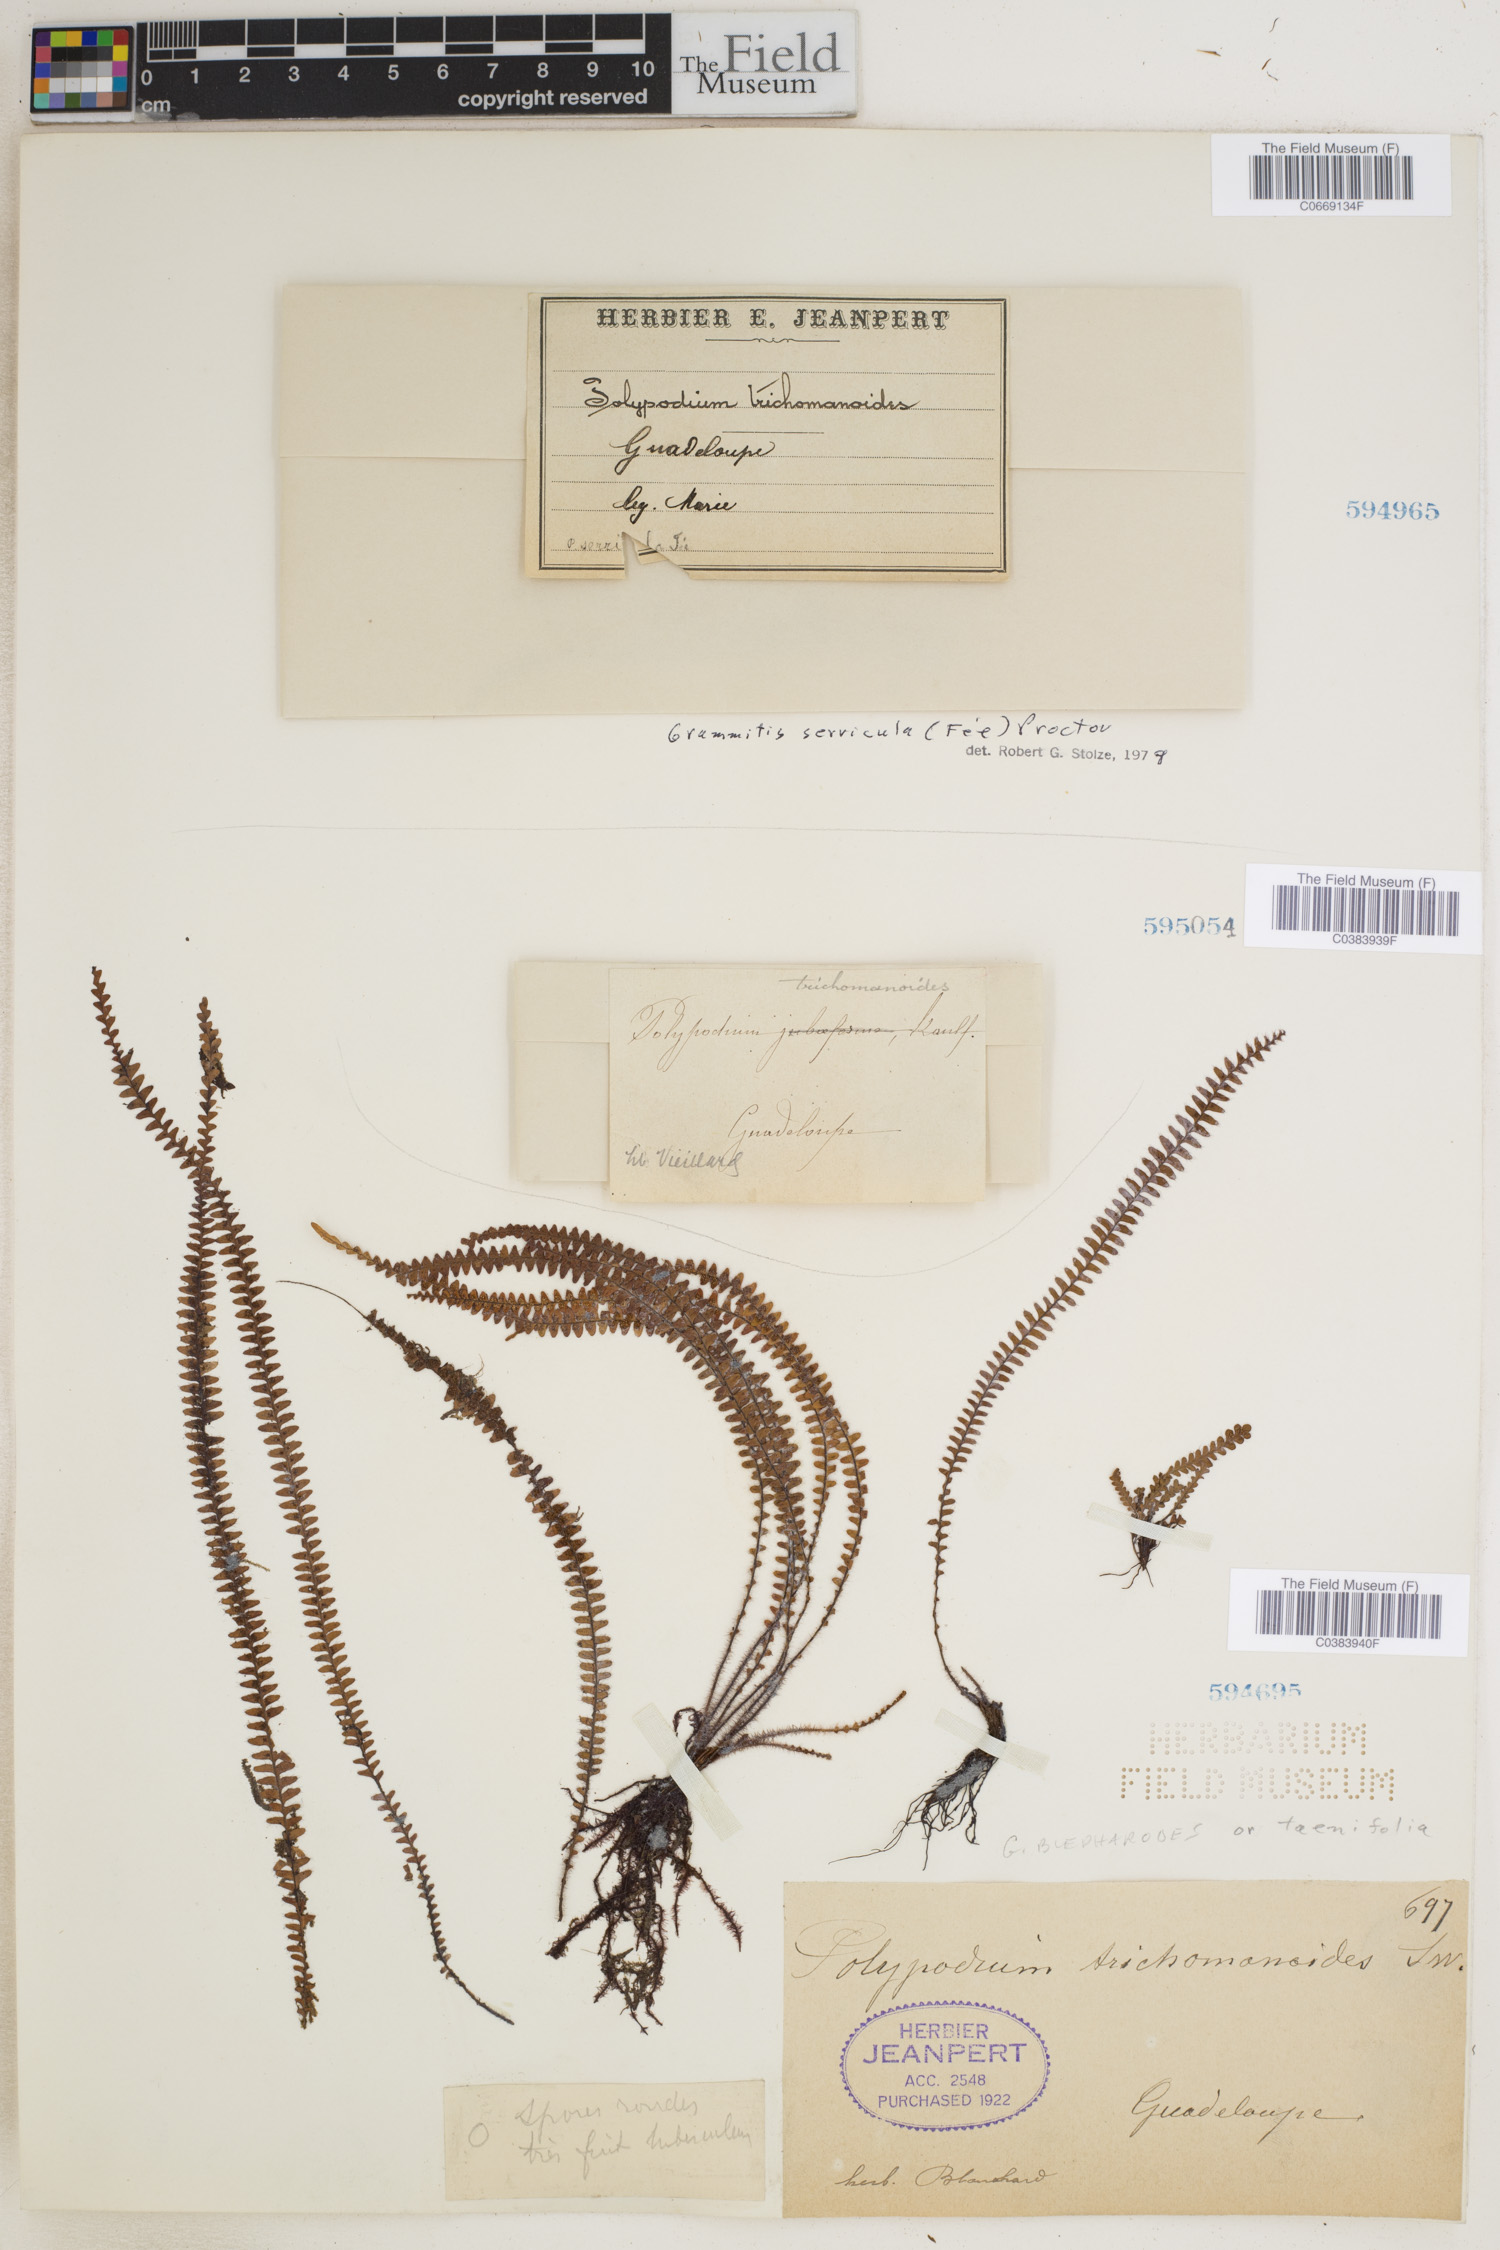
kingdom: Plantae
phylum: Tracheophyta
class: Polypodiopsida
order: Polypodiales
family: Polypodiaceae
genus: Moranopteris
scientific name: Moranopteris trichomanoides
